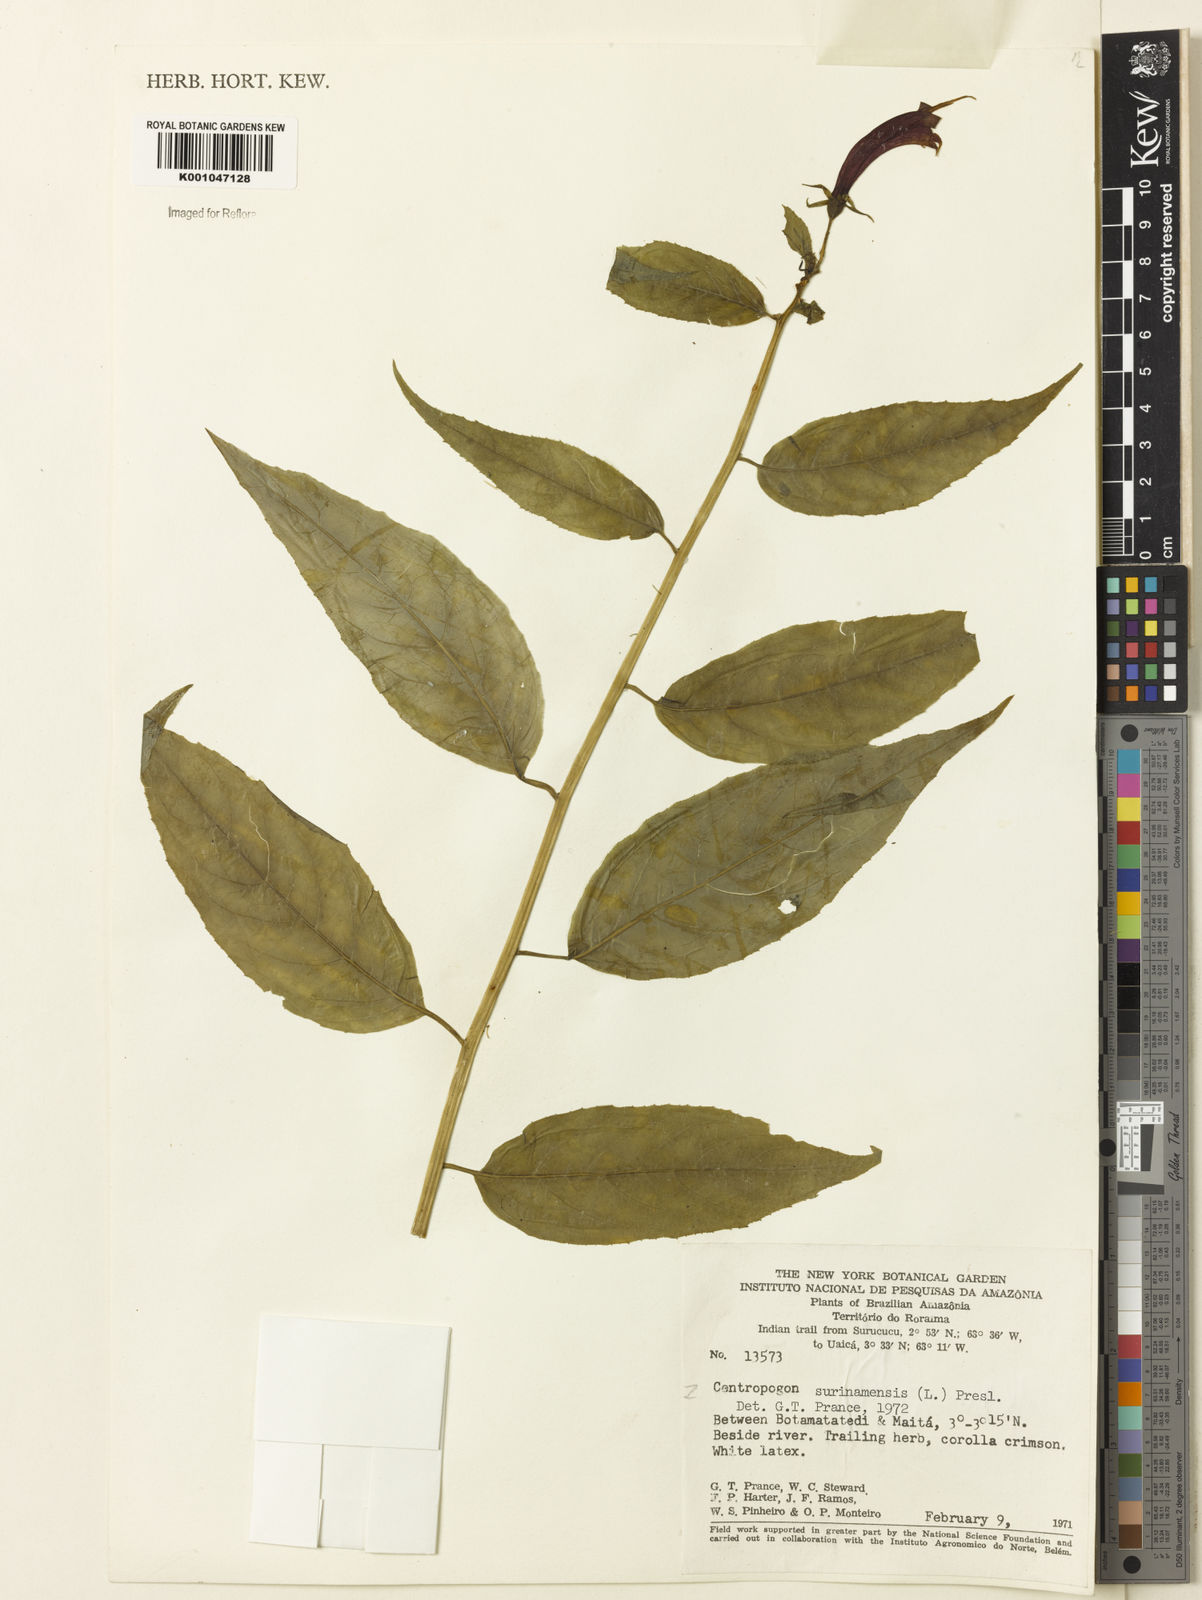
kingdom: Plantae
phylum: Tracheophyta
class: Magnoliopsida
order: Asterales
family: Campanulaceae
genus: Centropogon
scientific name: Centropogon cornutus
